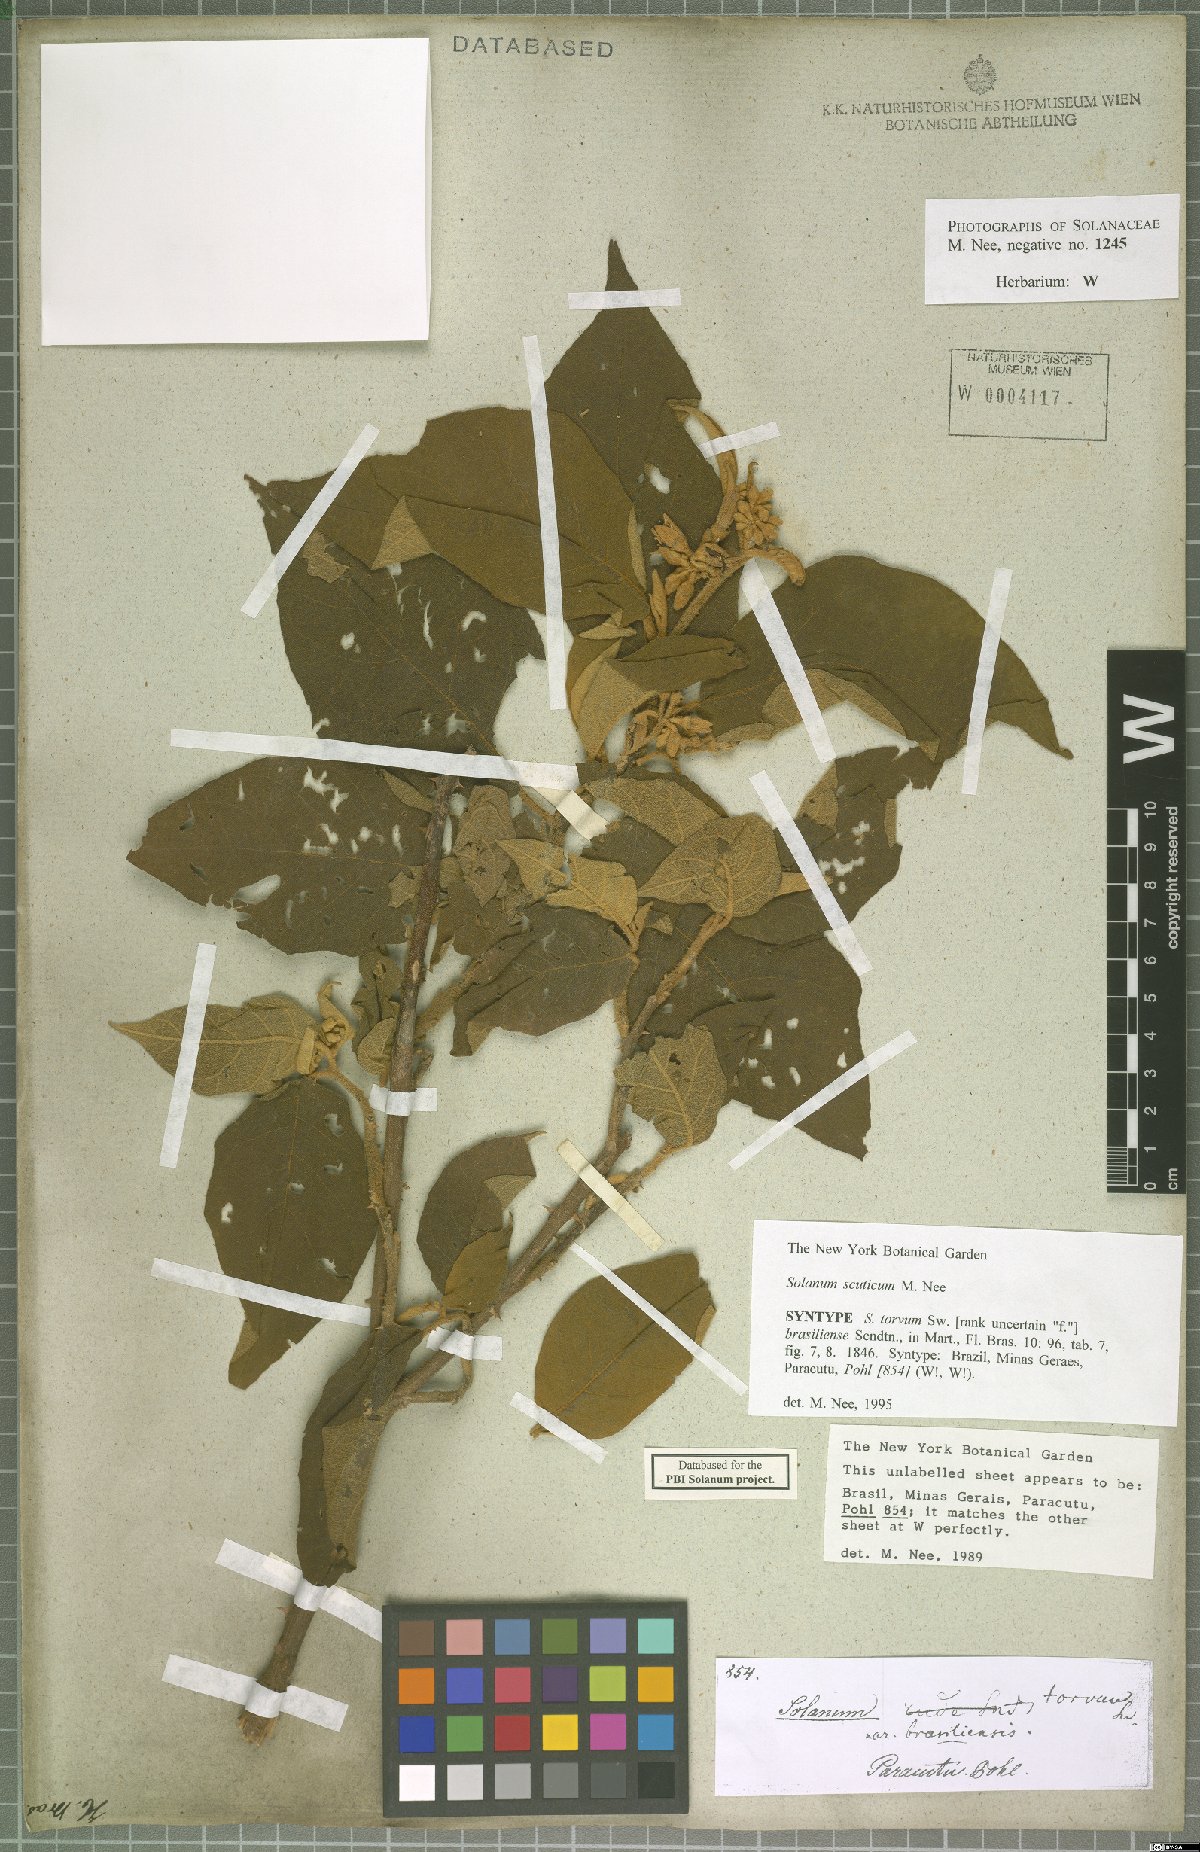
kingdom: Plantae
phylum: Tracheophyta
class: Magnoliopsida
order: Solanales
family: Solanaceae
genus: Solanum
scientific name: Solanum scuticum
